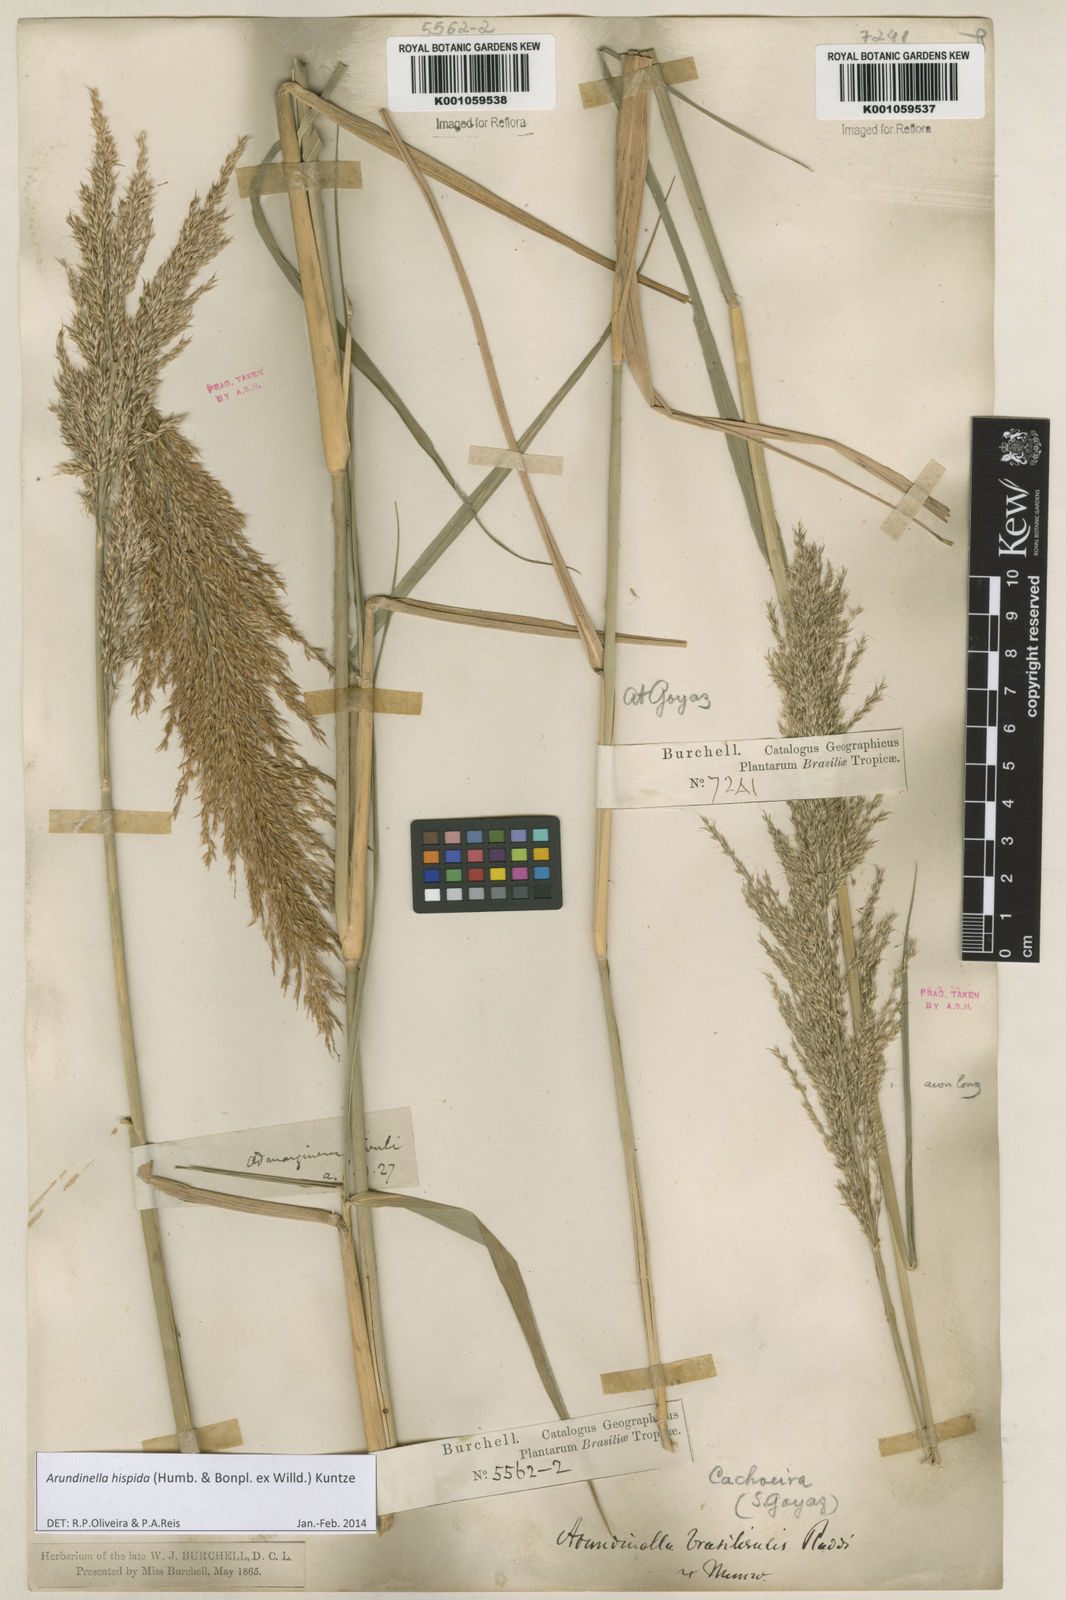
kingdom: Plantae
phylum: Tracheophyta
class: Liliopsida
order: Poales
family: Poaceae
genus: Arundinella
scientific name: Arundinella hispida
